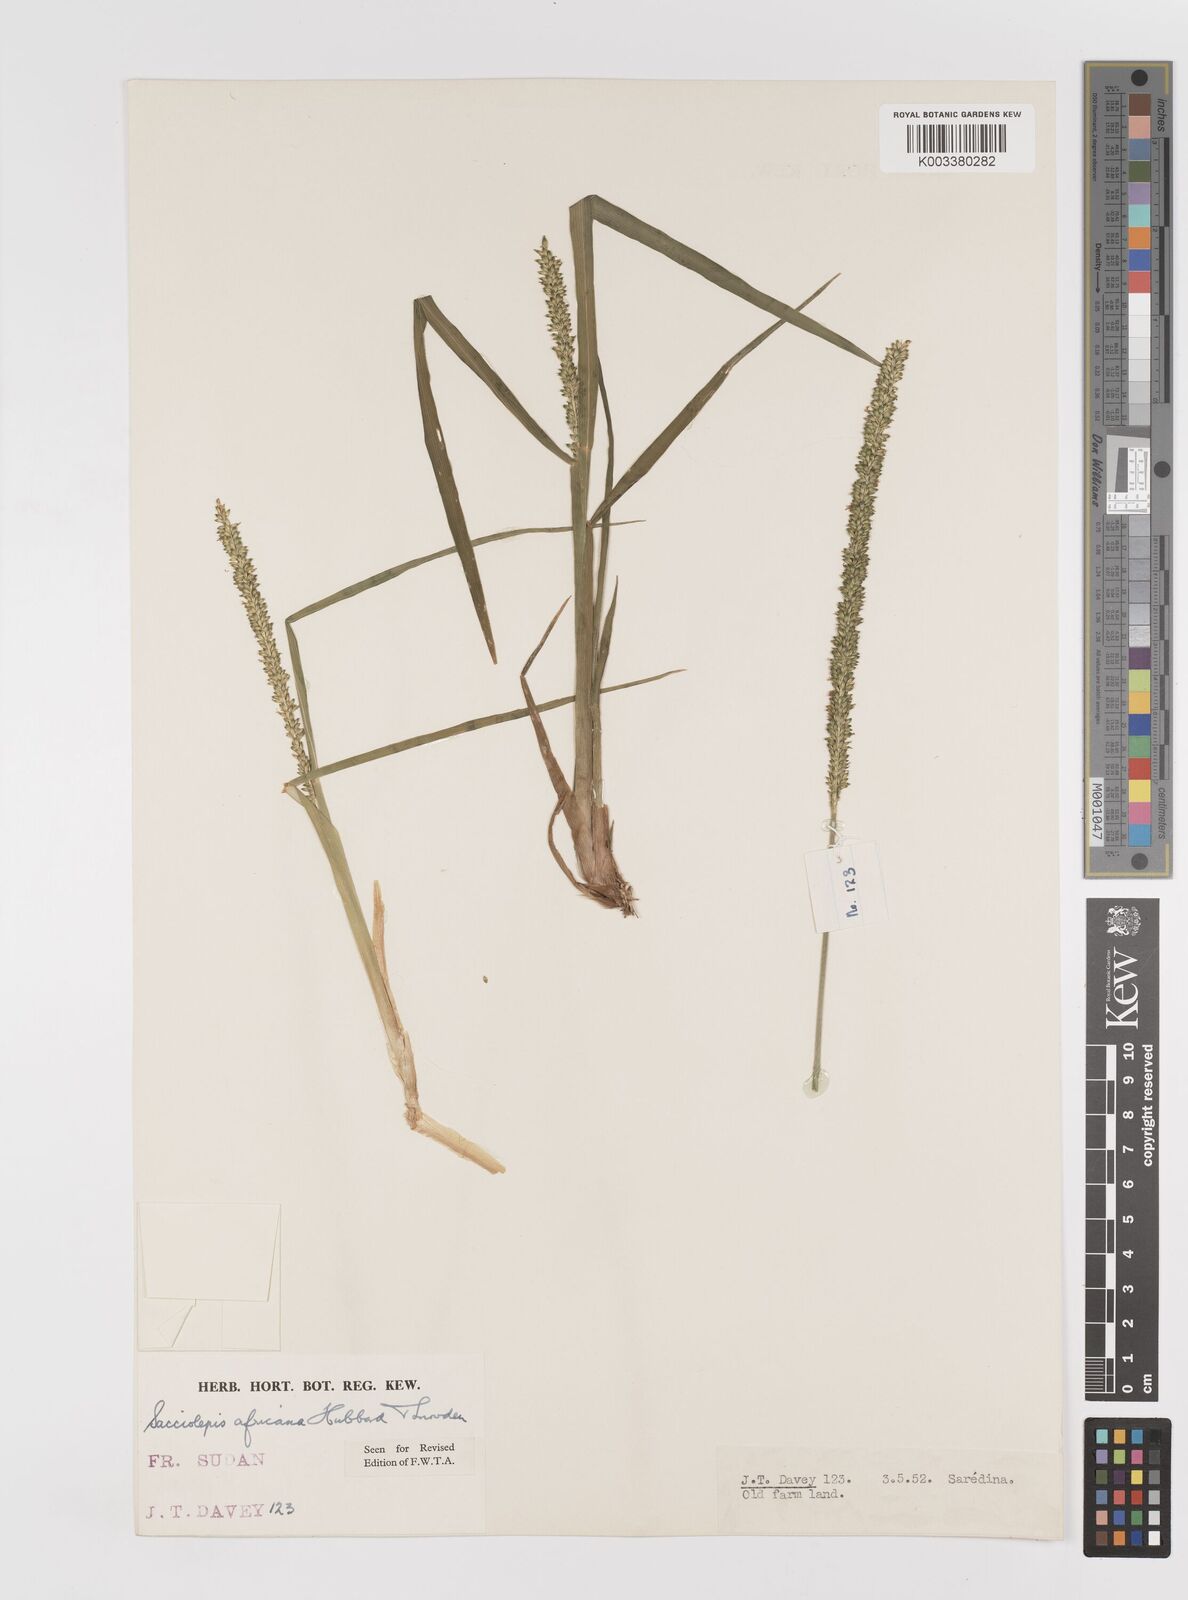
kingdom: Plantae
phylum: Tracheophyta
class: Liliopsida
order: Poales
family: Poaceae
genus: Sacciolepis
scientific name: Sacciolepis africana
